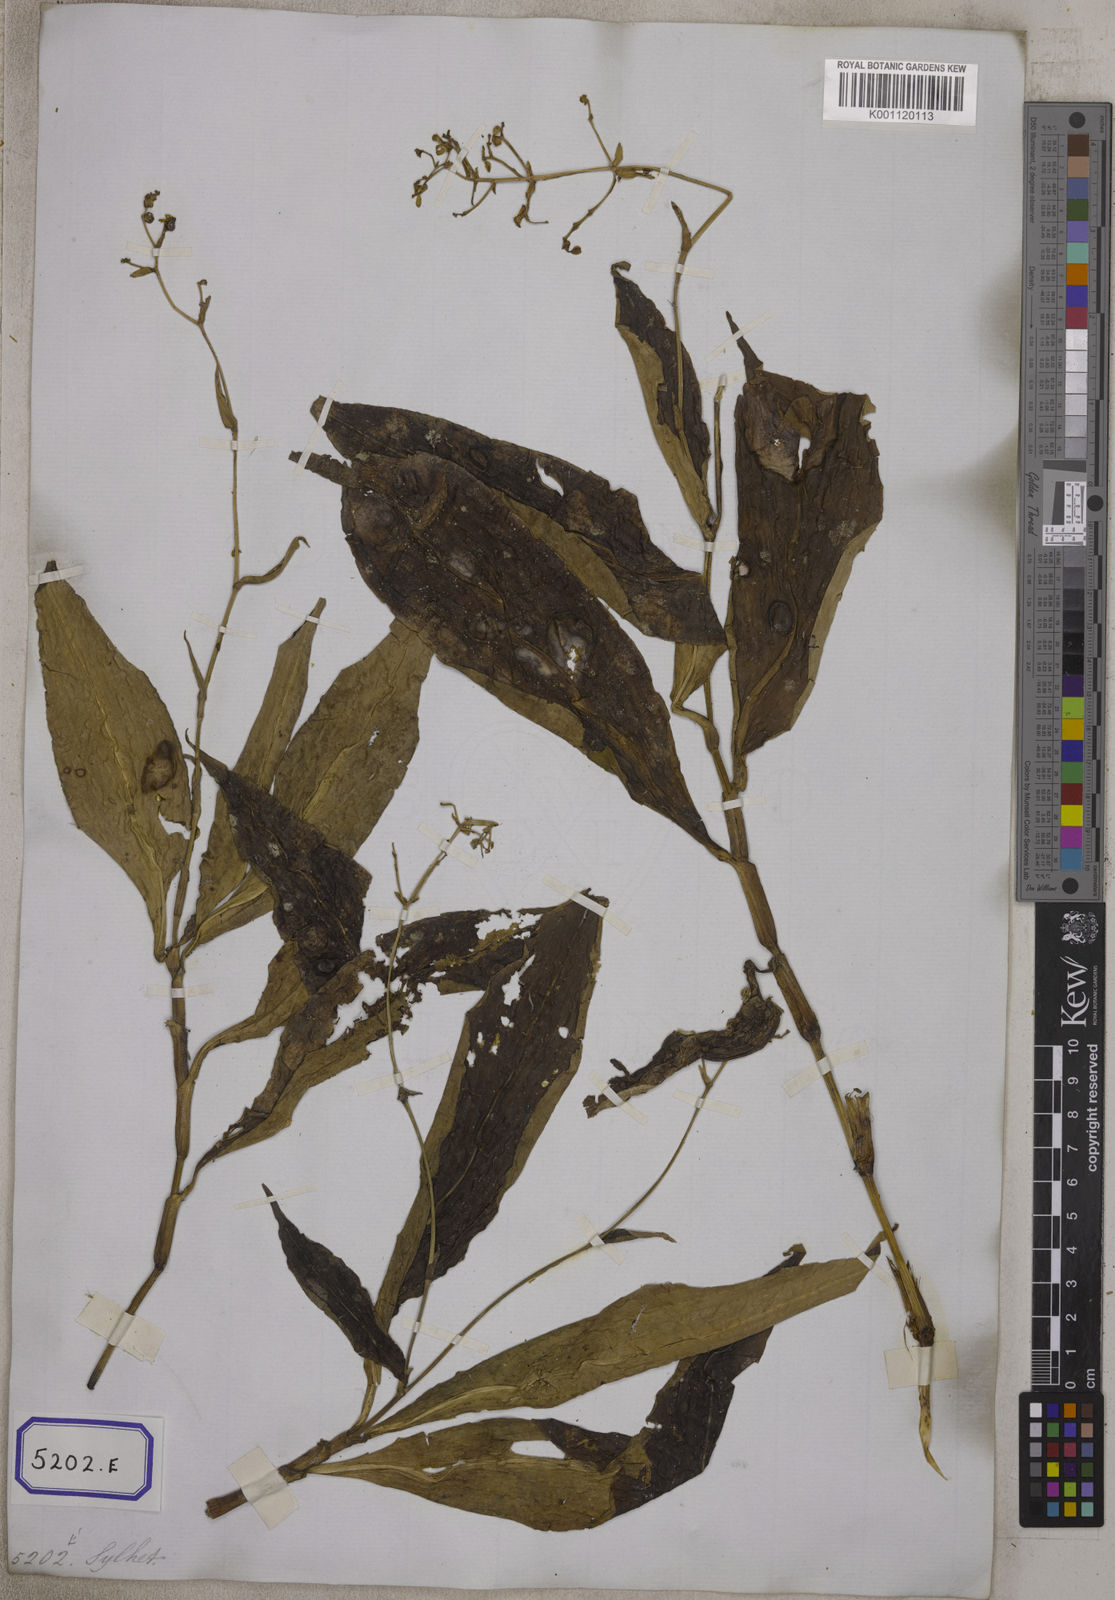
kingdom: Plantae
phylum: Tracheophyta
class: Liliopsida
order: Commelinales
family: Commelinaceae
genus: Aneilema
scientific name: Aneilema
